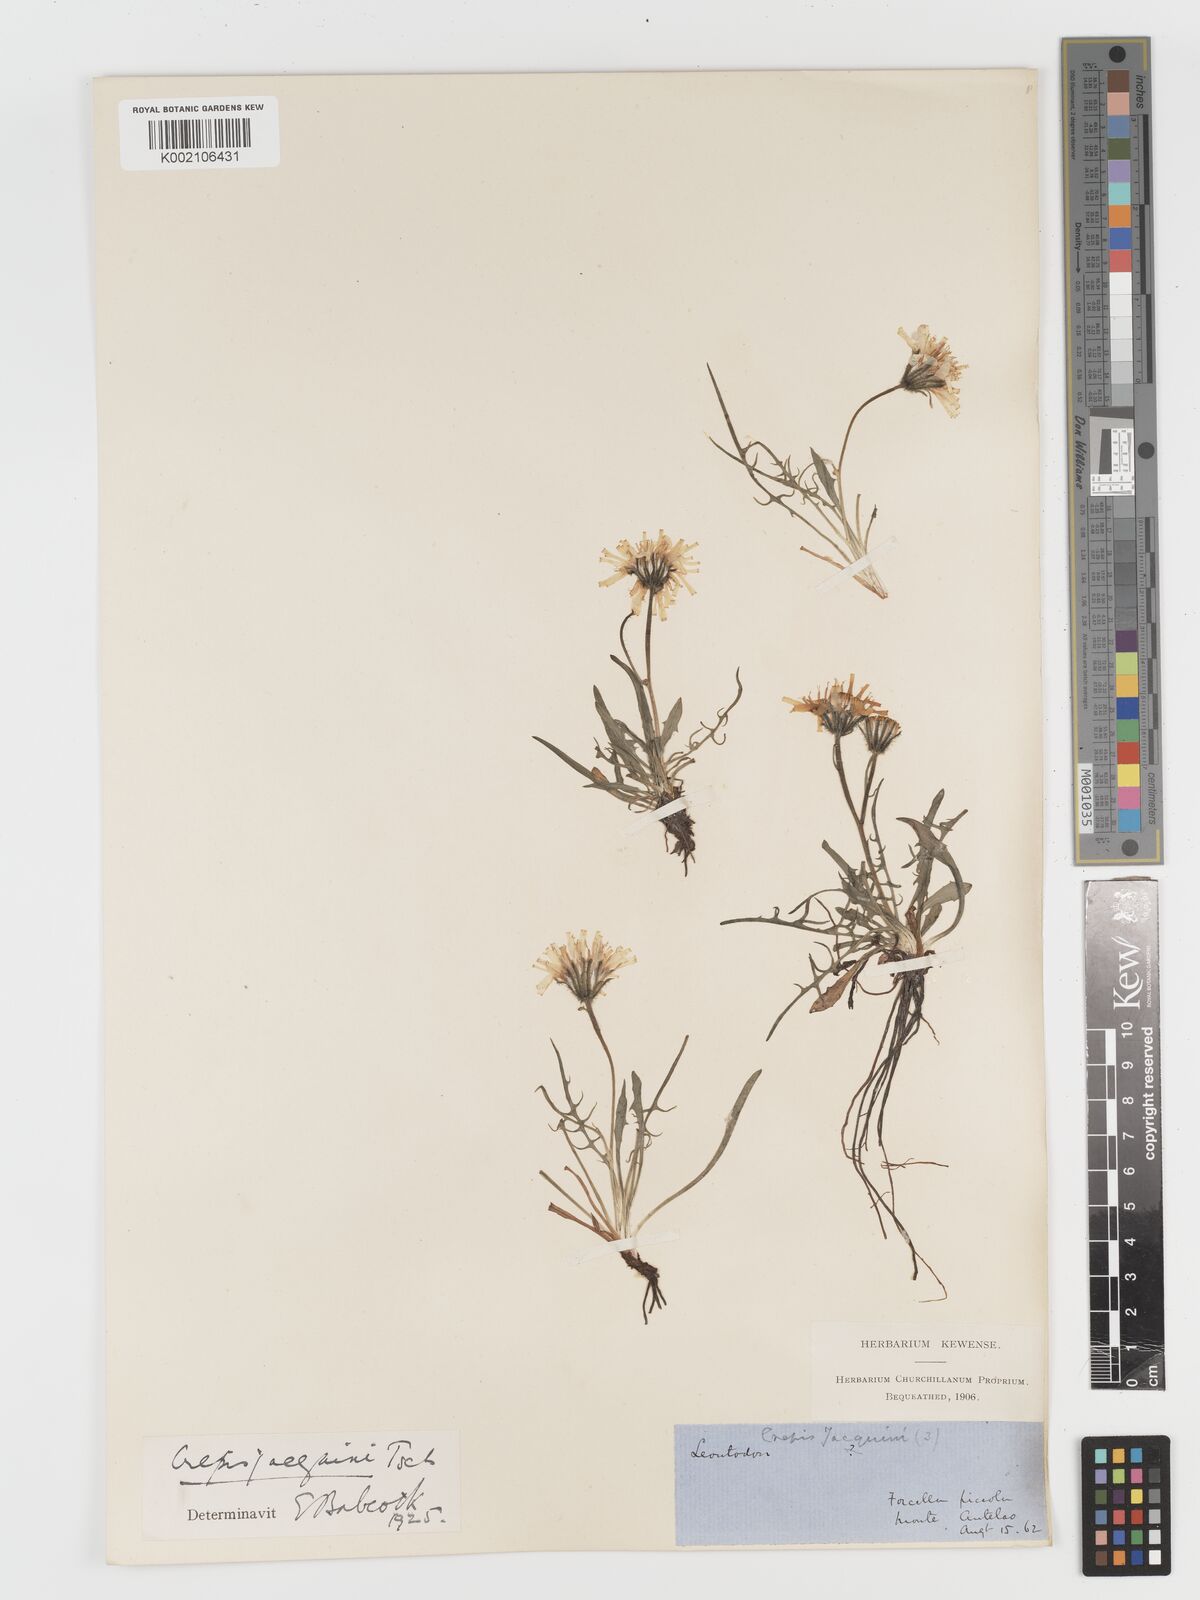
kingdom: Plantae
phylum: Tracheophyta
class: Magnoliopsida
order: Asterales
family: Asteraceae
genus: Crepis
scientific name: Crepis jacquinii
